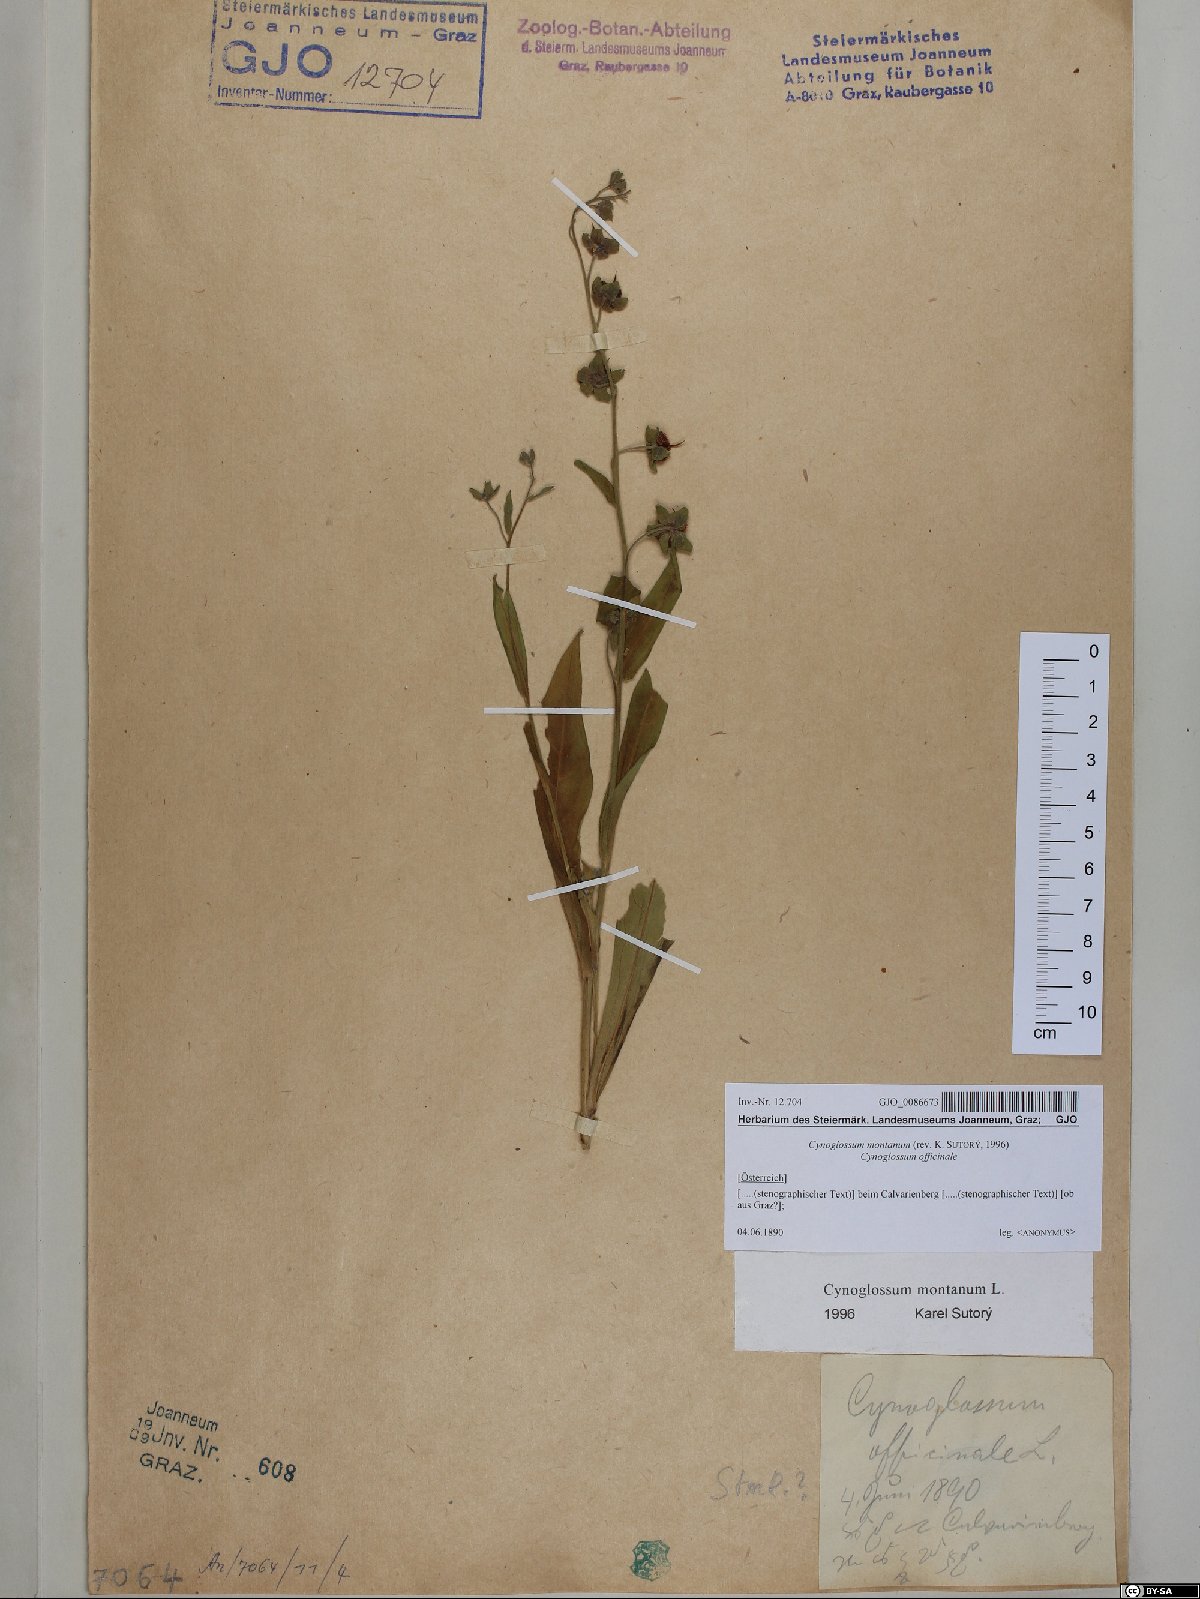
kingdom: Plantae
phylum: Tracheophyta
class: Magnoliopsida
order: Boraginales
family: Boraginaceae
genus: Cynoglossum
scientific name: Cynoglossum montanum
